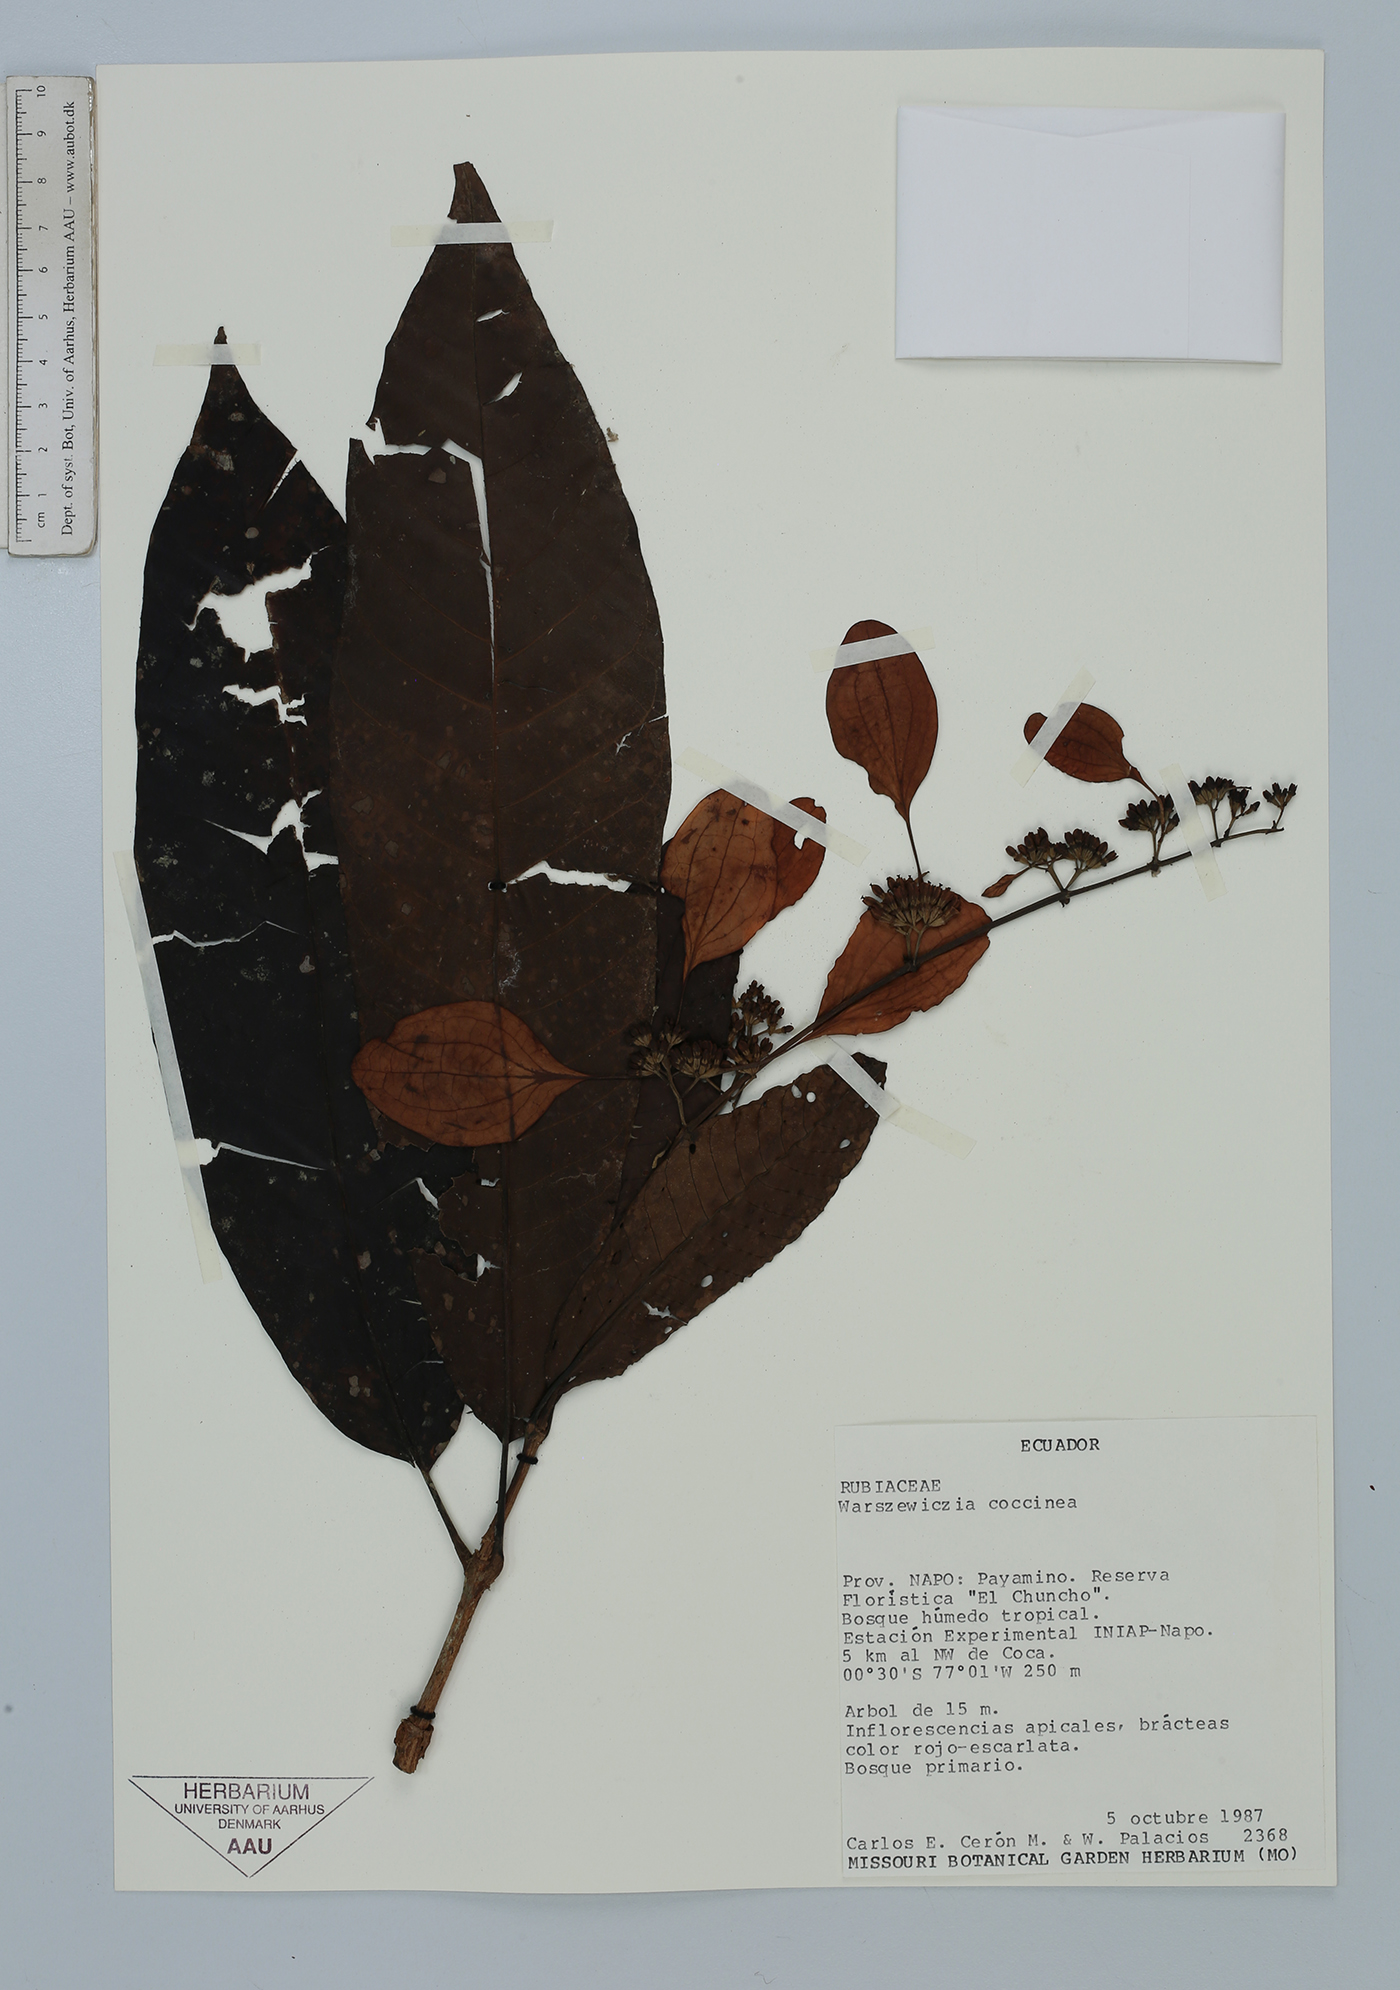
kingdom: Plantae
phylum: Tracheophyta
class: Magnoliopsida
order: Gentianales
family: Rubiaceae
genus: Warszewiczia
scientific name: Warszewiczia coccinea
